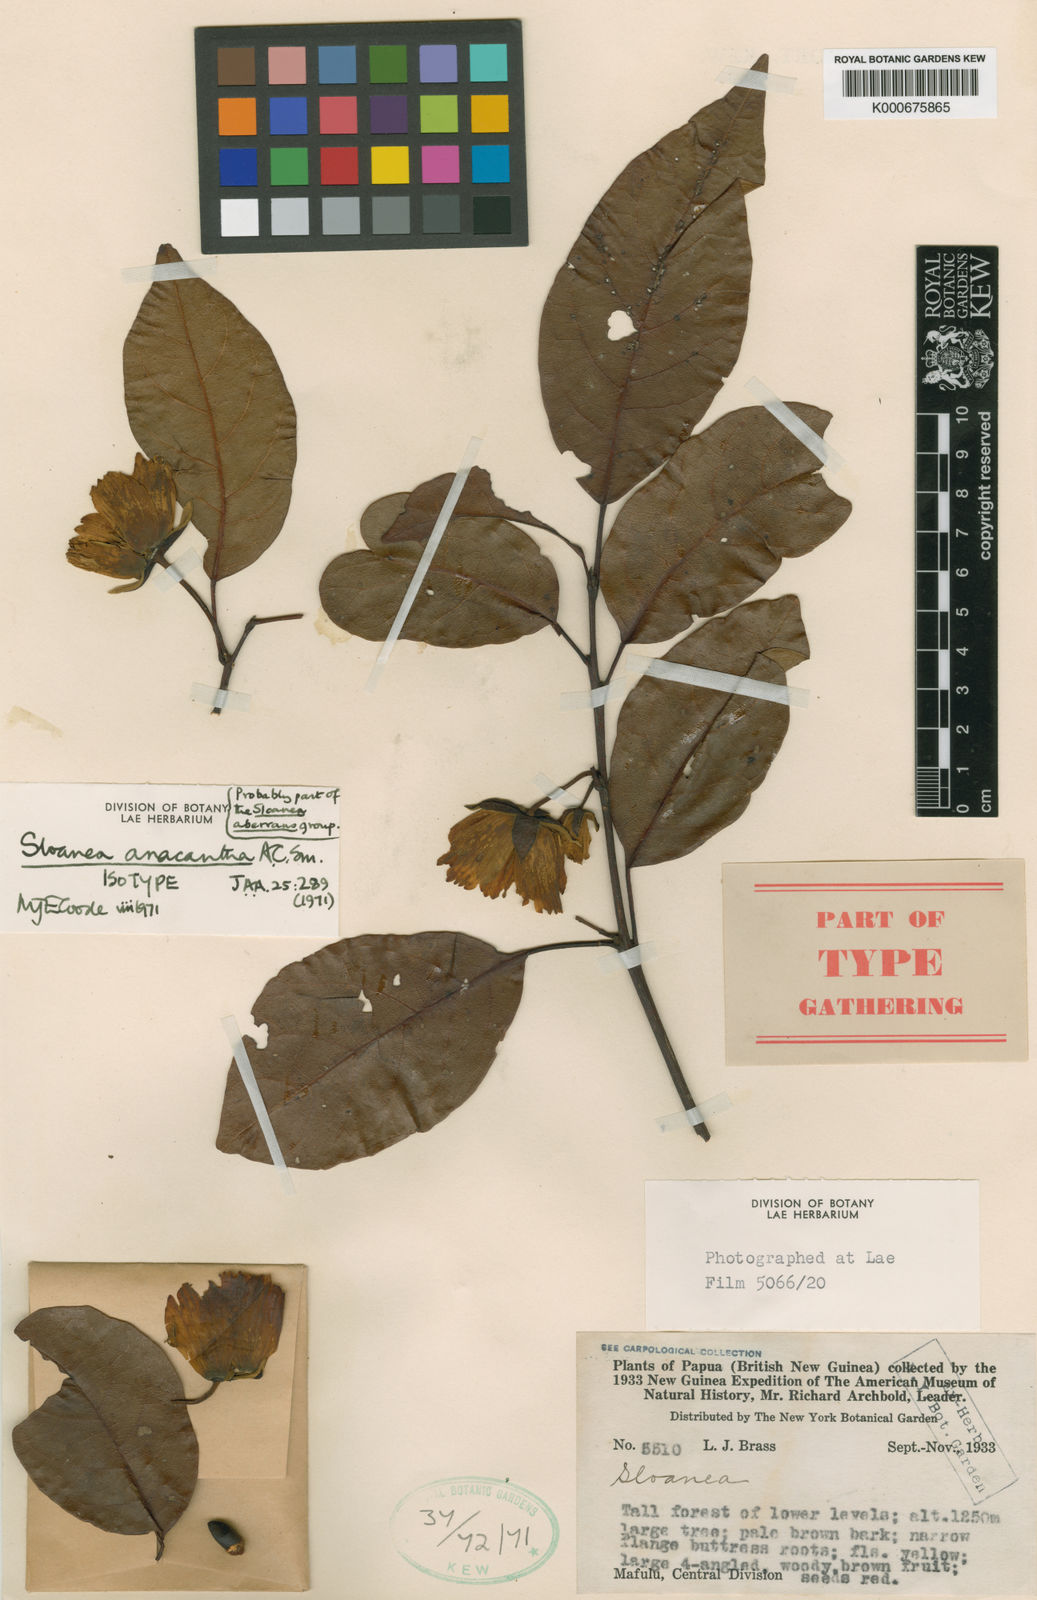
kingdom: Plantae
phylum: Tracheophyta
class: Magnoliopsida
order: Oxalidales
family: Elaeocarpaceae
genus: Sloanea
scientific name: Sloanea anacantha
